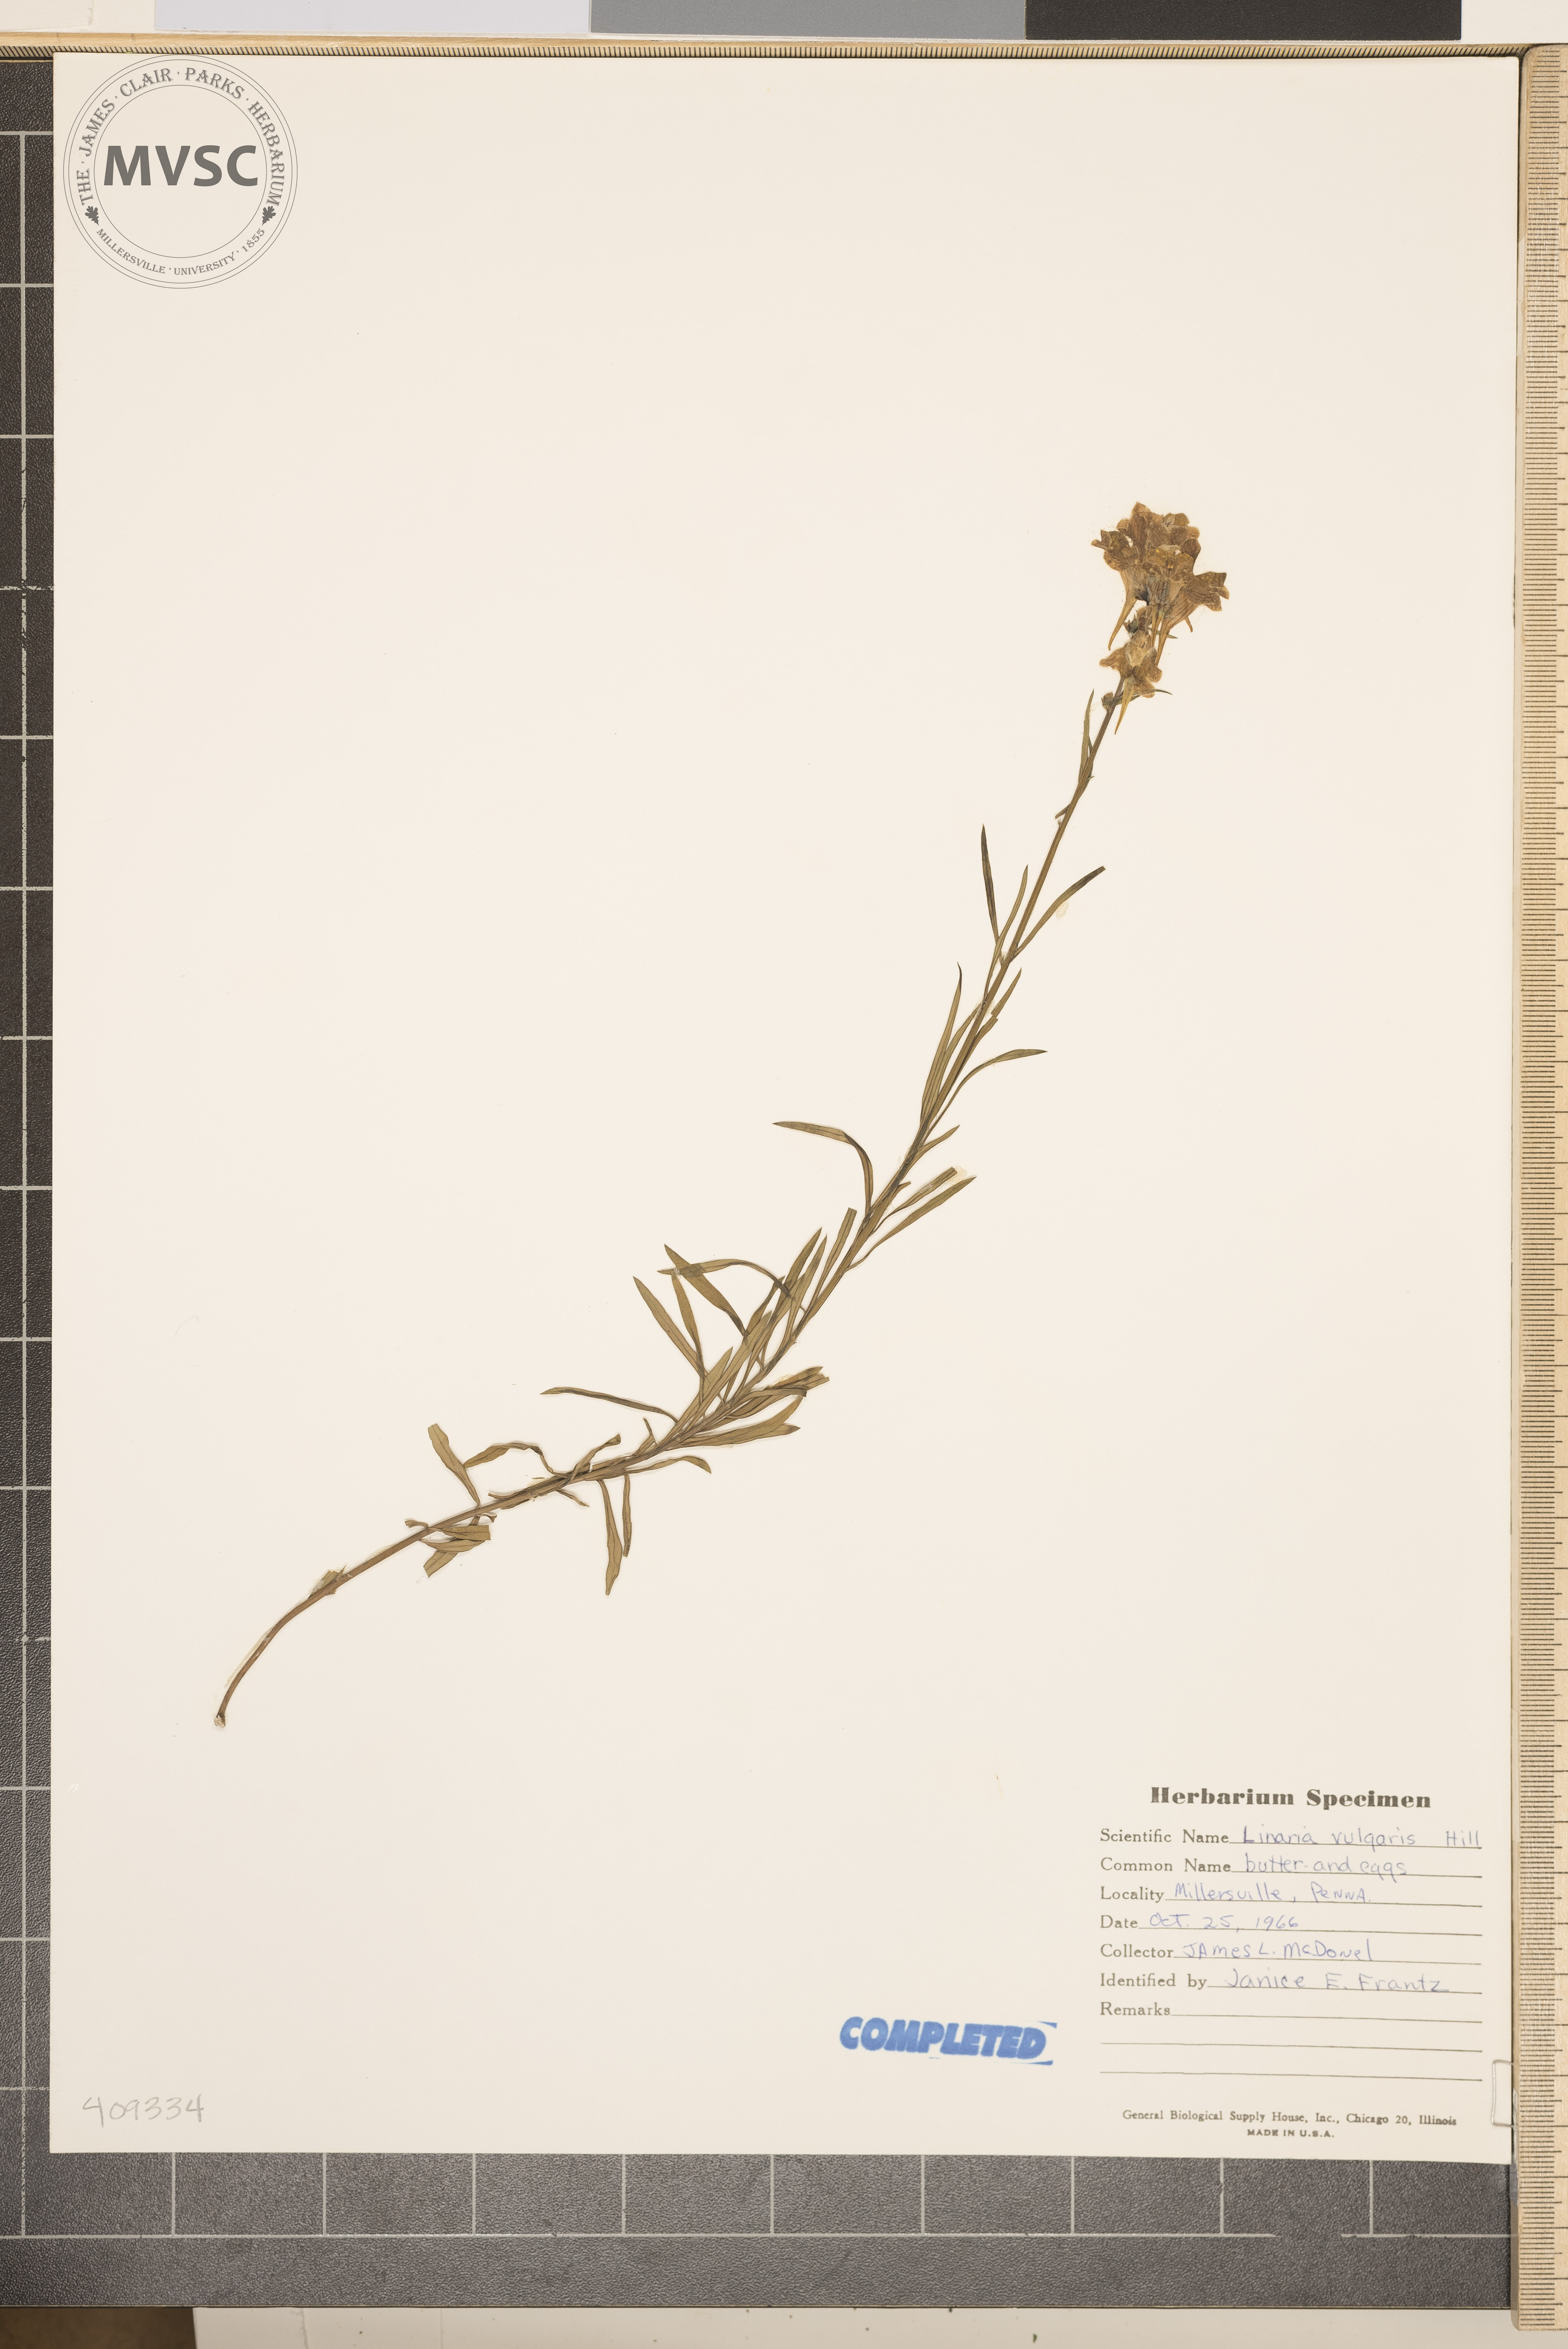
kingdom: Plantae
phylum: Tracheophyta
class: Magnoliopsida
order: Lamiales
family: Plantaginaceae
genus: Linaria
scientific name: Linaria vulgaris
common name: Butter and eggs
